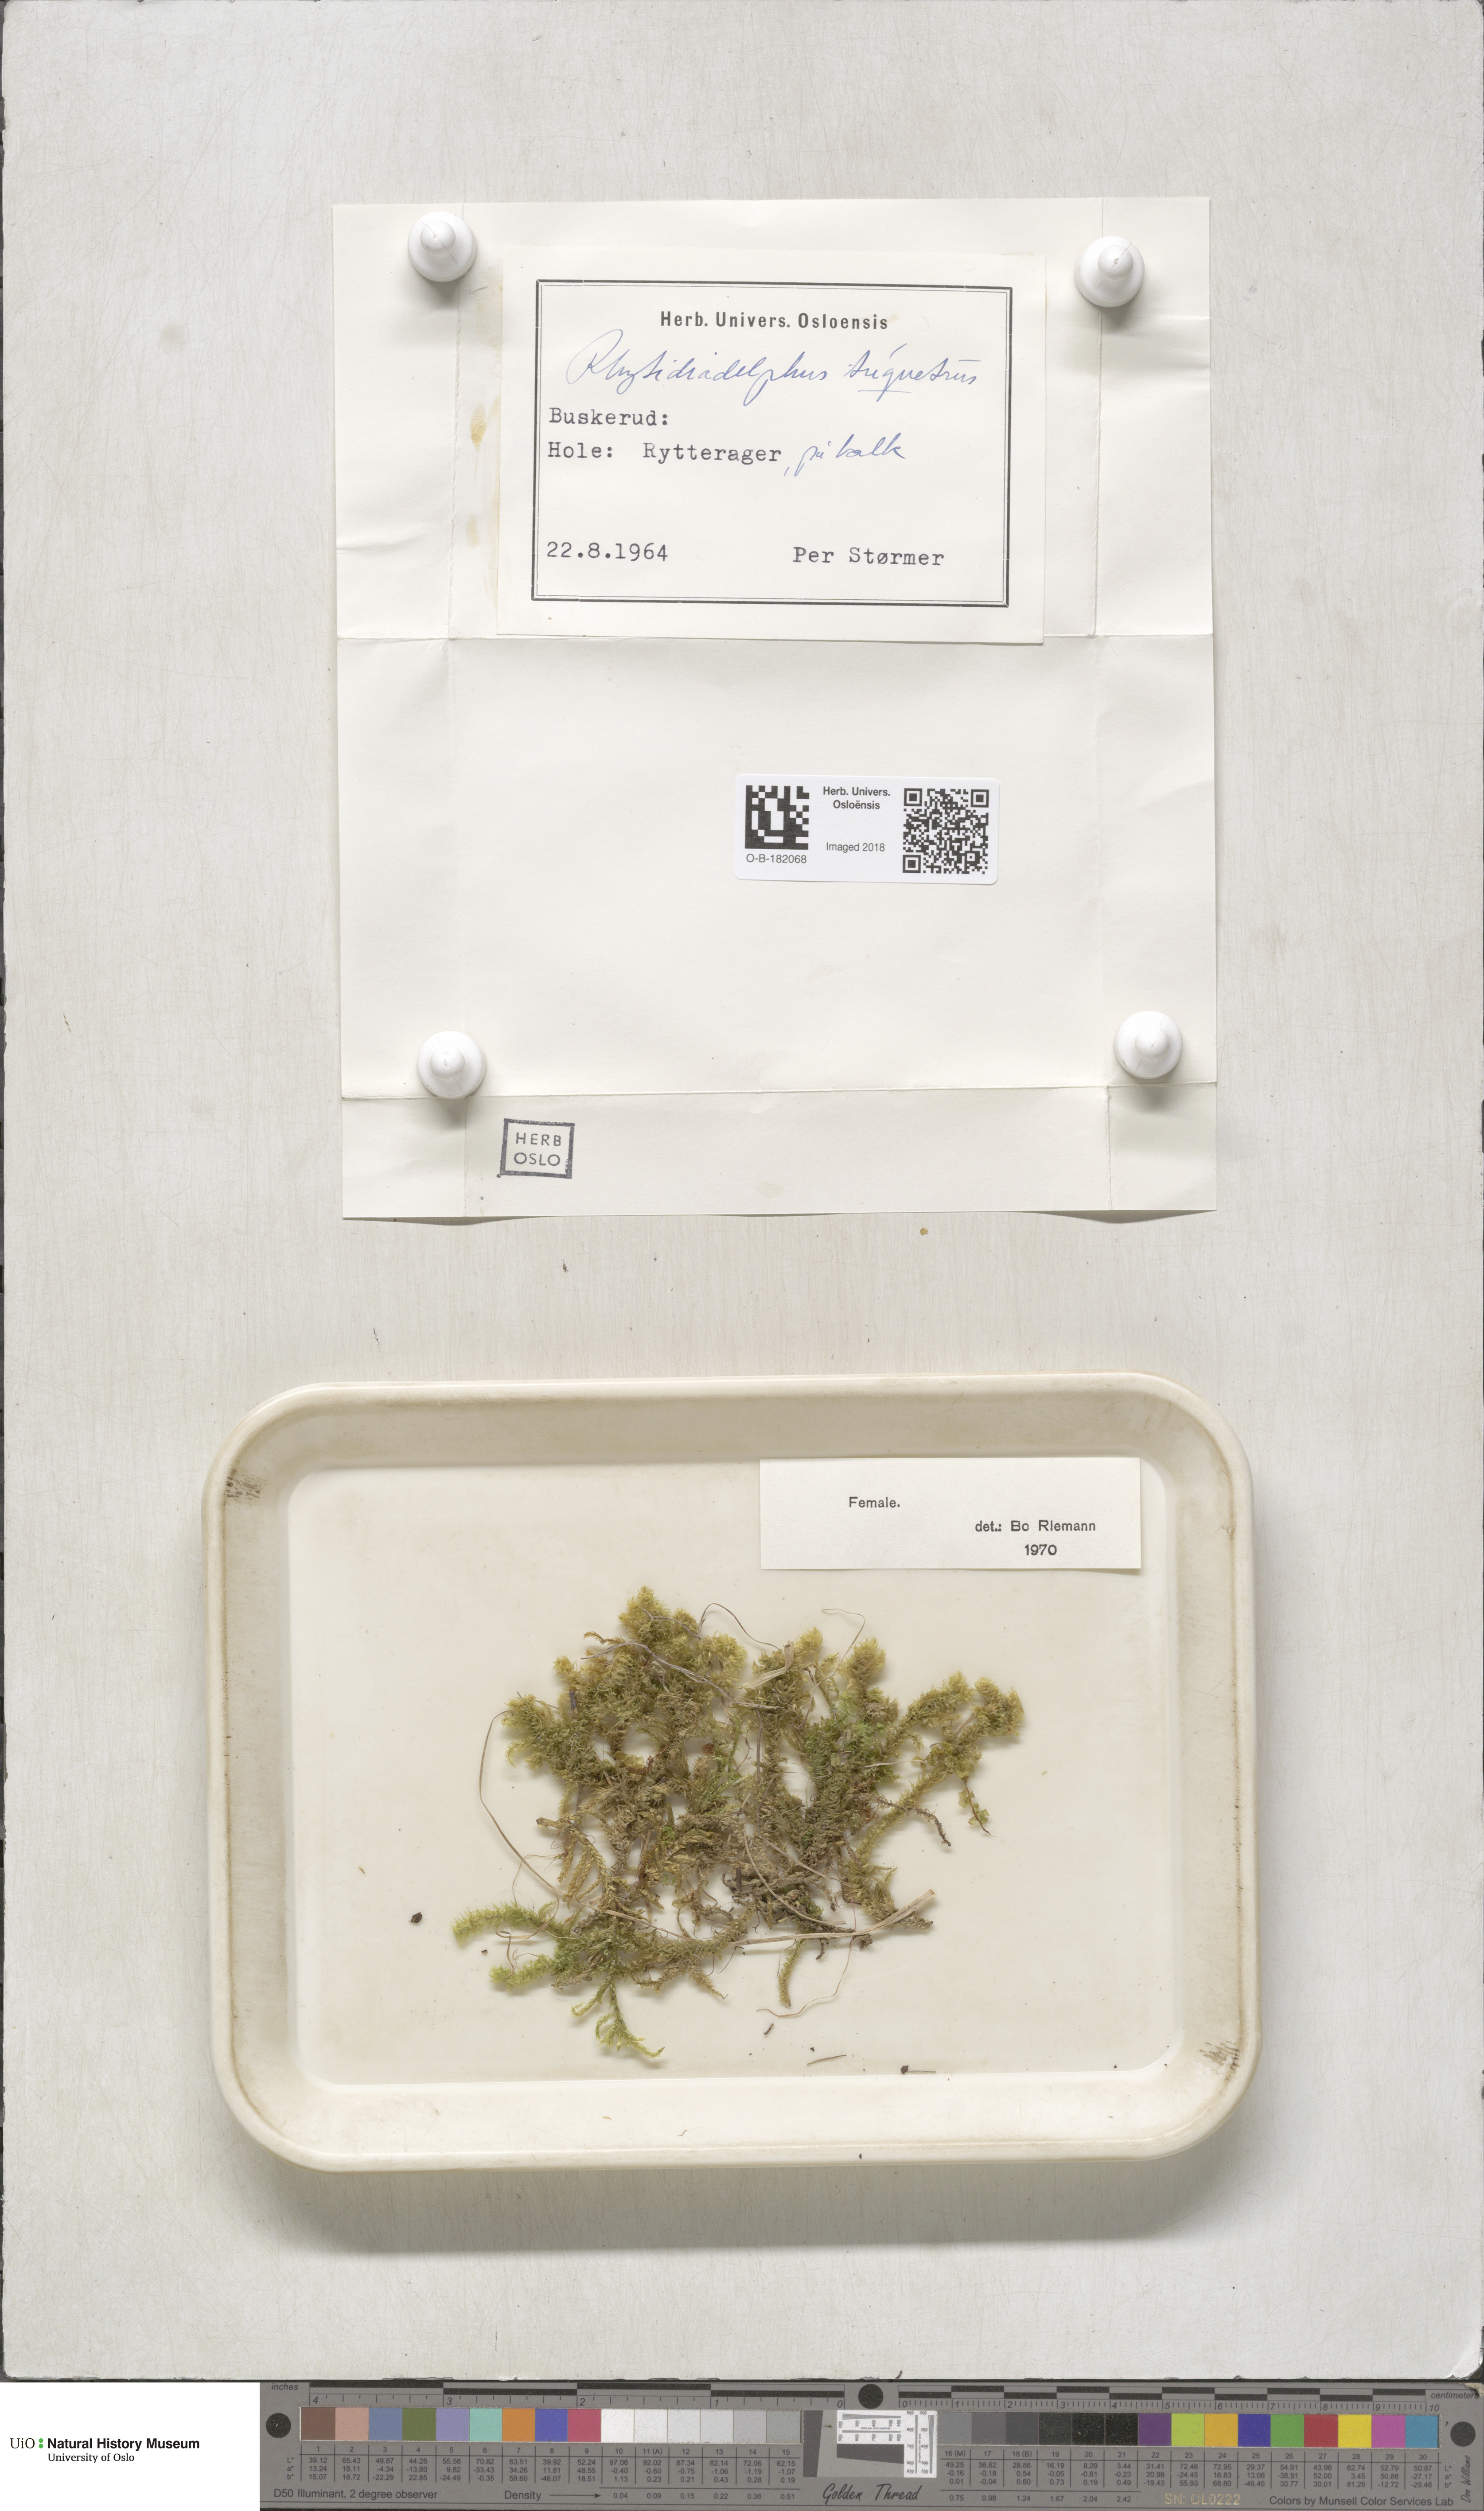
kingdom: Plantae
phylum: Bryophyta
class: Bryopsida
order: Hypnales
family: Hylocomiaceae
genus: Hylocomiadelphus
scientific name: Hylocomiadelphus triquetrus
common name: Rough goose neck moss
